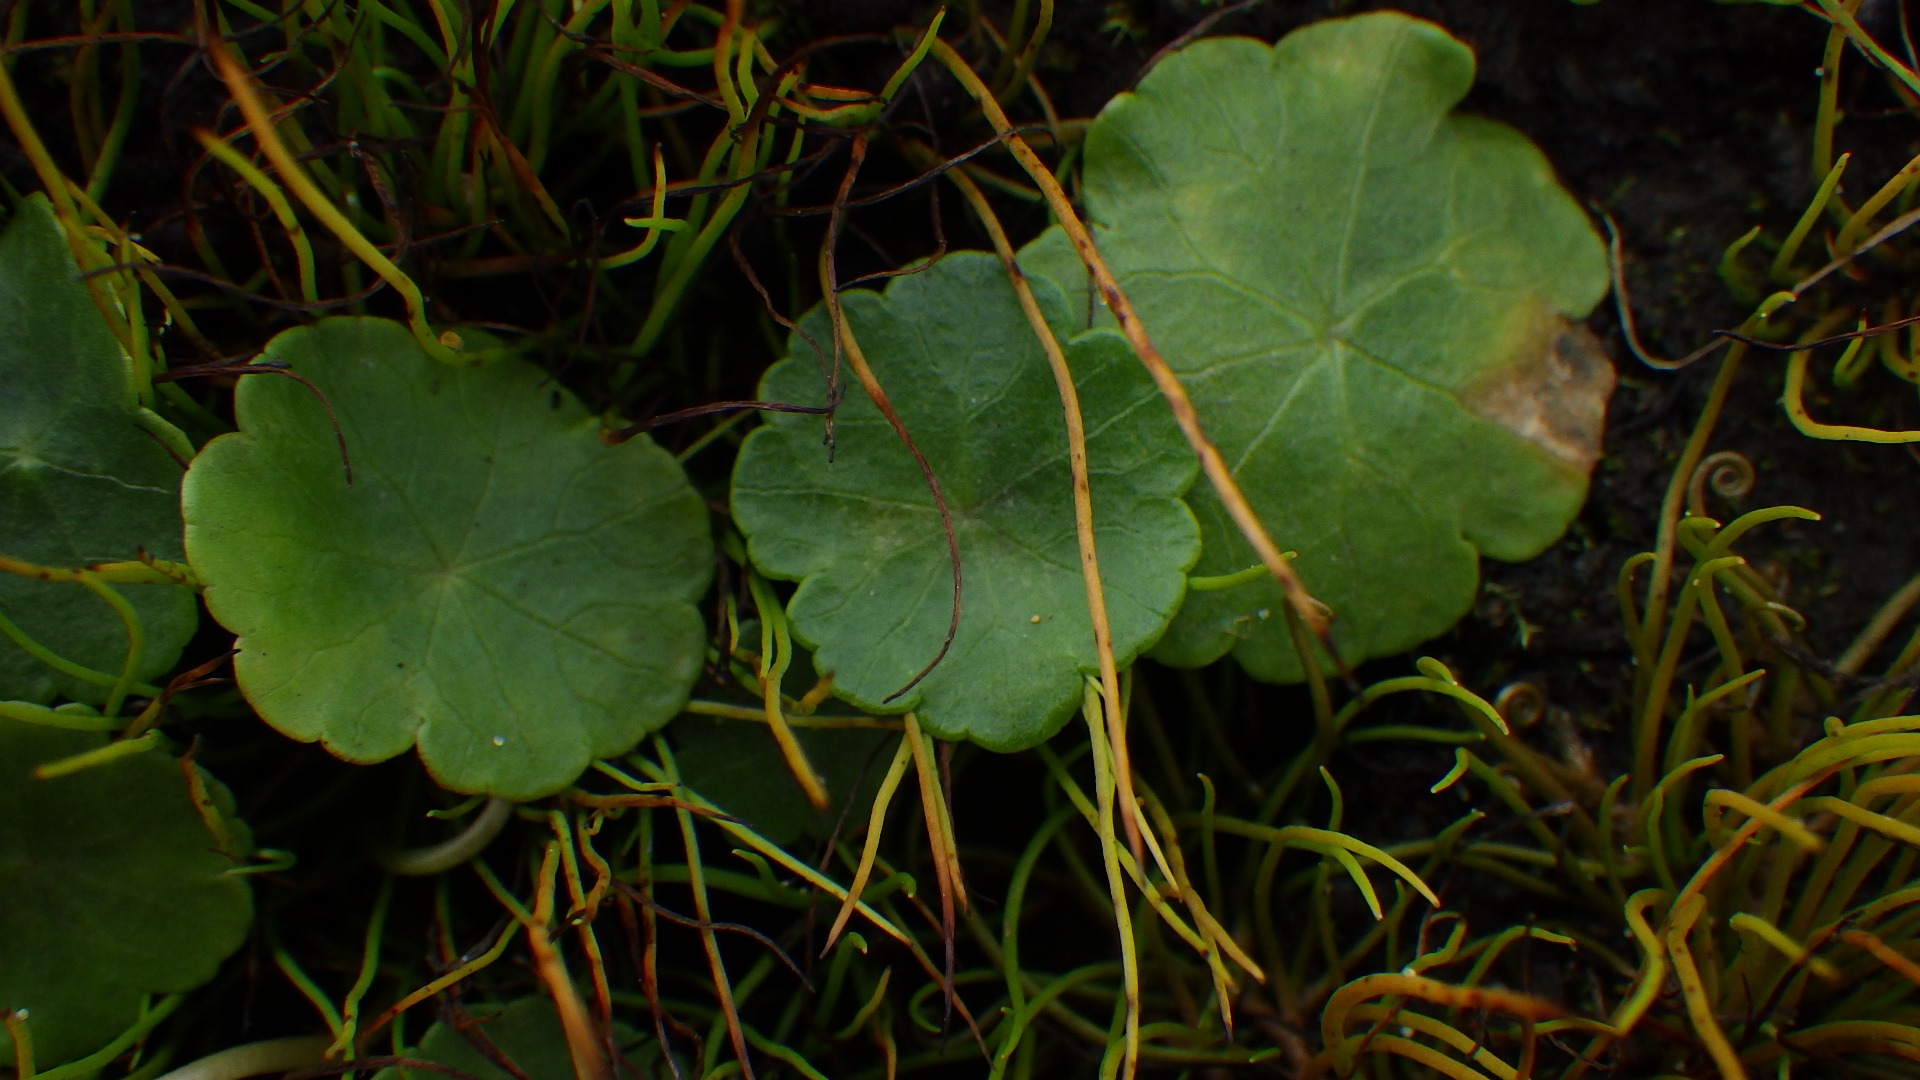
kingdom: Plantae
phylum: Tracheophyta
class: Magnoliopsida
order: Apiales
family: Araliaceae
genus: Hydrocotyle
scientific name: Hydrocotyle vulgaris
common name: Vandnavle
